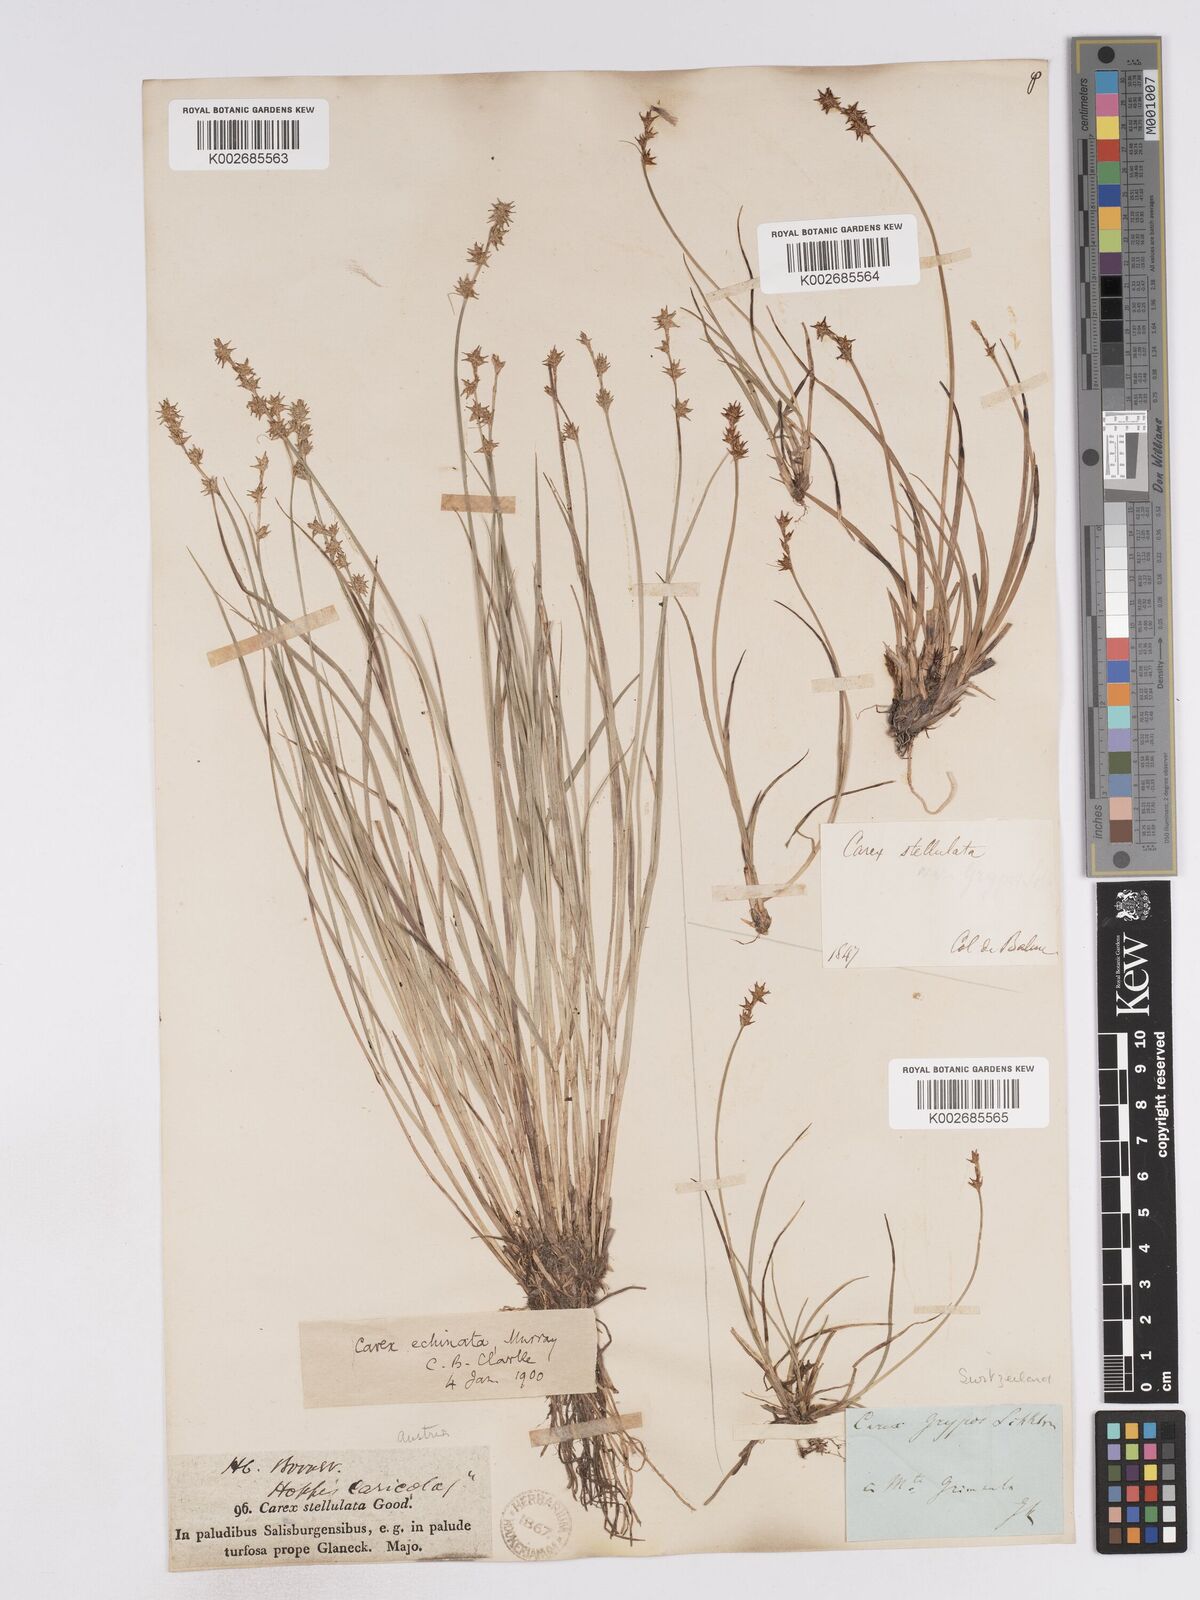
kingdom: Plantae
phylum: Tracheophyta
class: Liliopsida
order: Poales
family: Cyperaceae
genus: Carex
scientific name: Carex echinata
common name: Star sedge
